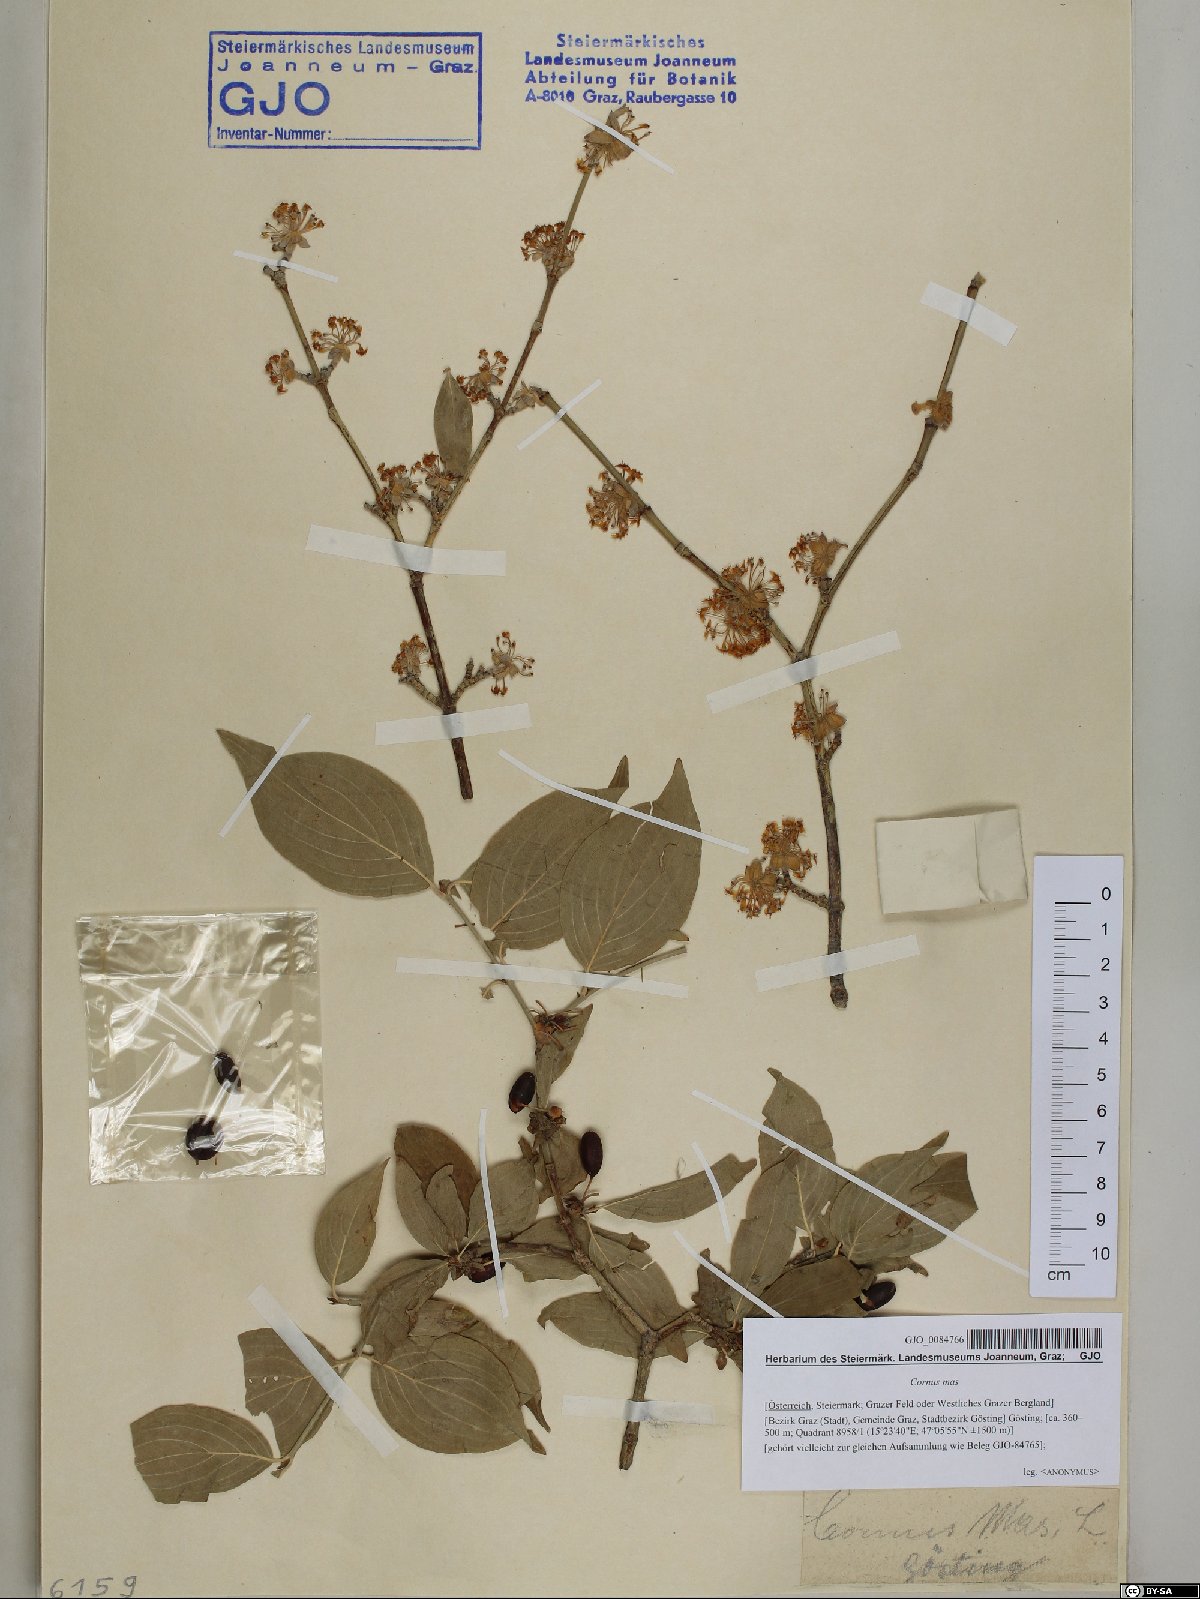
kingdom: Plantae
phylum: Tracheophyta
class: Magnoliopsida
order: Cornales
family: Cornaceae
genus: Cornus
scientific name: Cornus mas
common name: Cornelian-cherry
